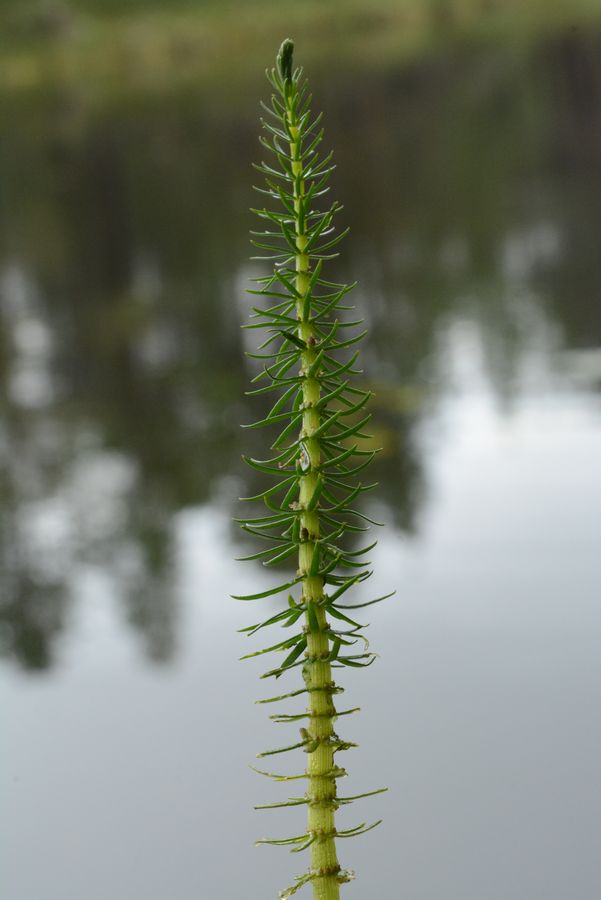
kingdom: Plantae
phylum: Tracheophyta
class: Magnoliopsida
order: Lamiales
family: Plantaginaceae
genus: Hippuris
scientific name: Hippuris vulgaris
